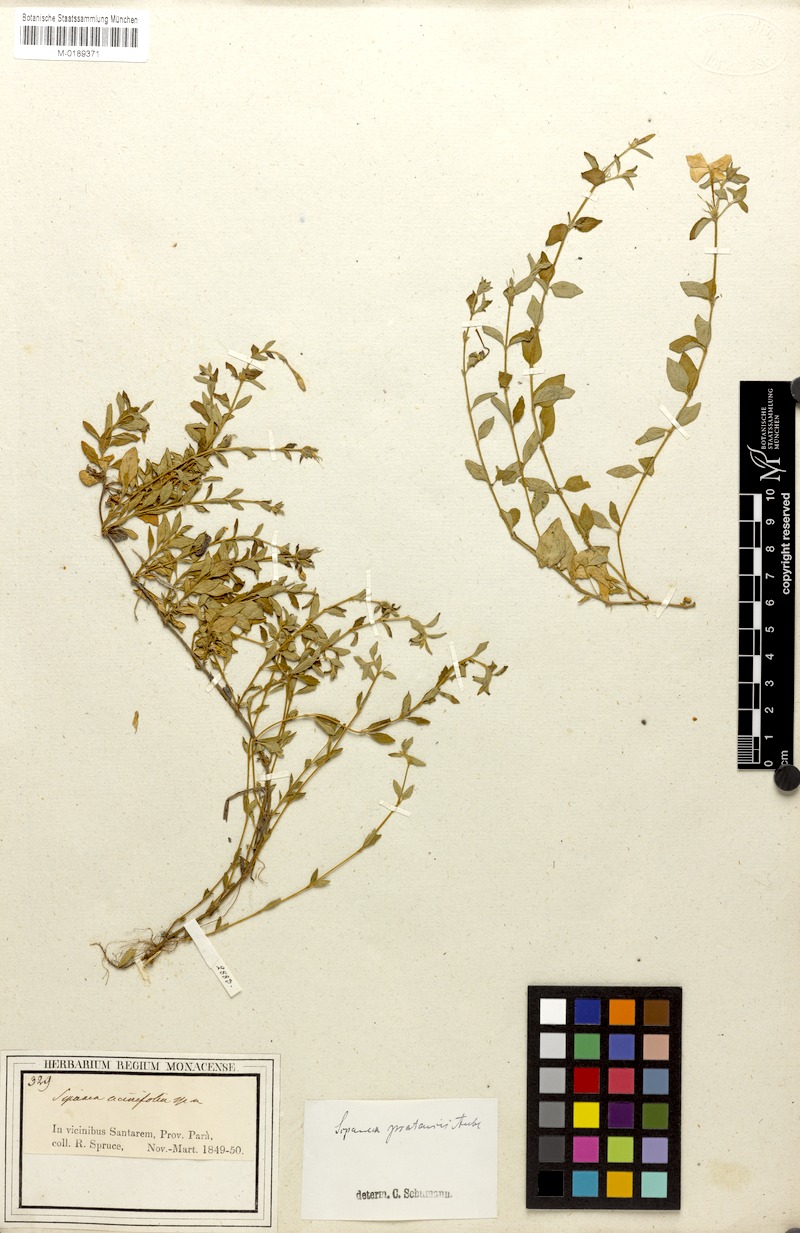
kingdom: Plantae
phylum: Tracheophyta
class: Magnoliopsida
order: Gentianales
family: Rubiaceae
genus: Sipanea
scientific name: Sipanea veris
